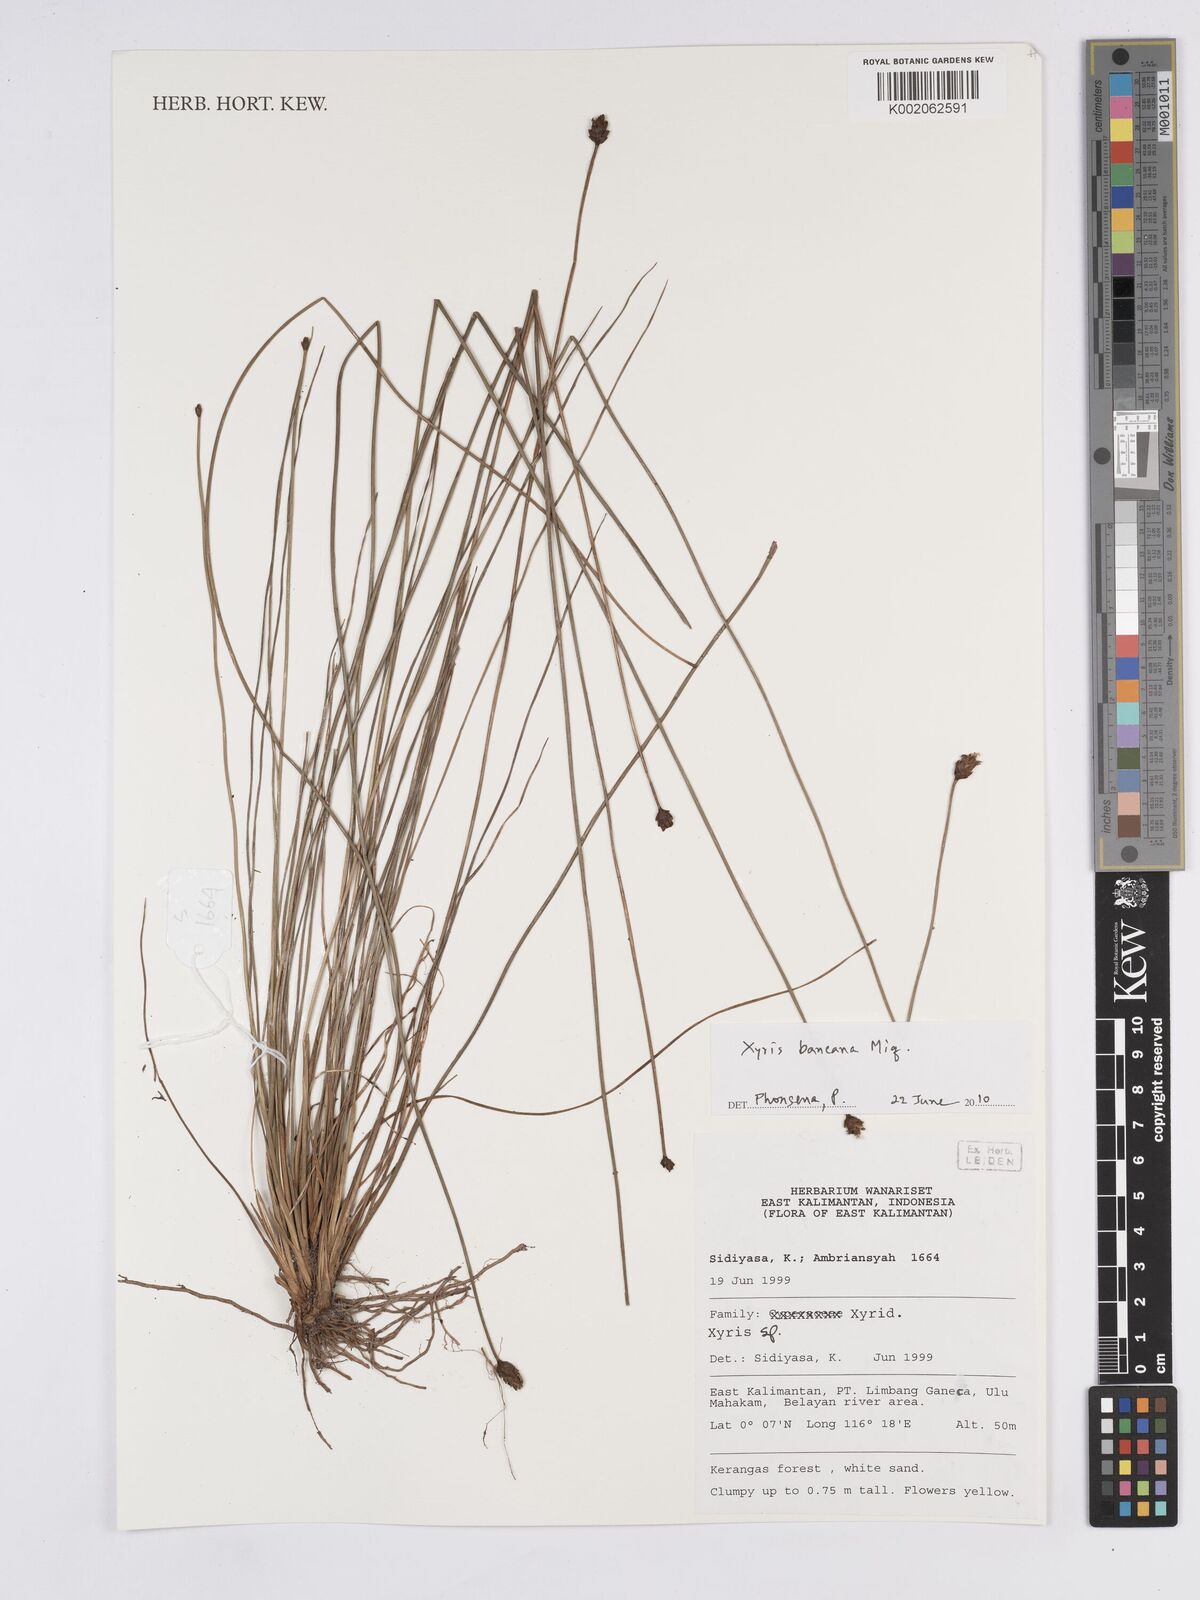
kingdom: Plantae
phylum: Tracheophyta
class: Liliopsida
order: Poales
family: Xyridaceae
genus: Xyris
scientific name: Xyris bancana
